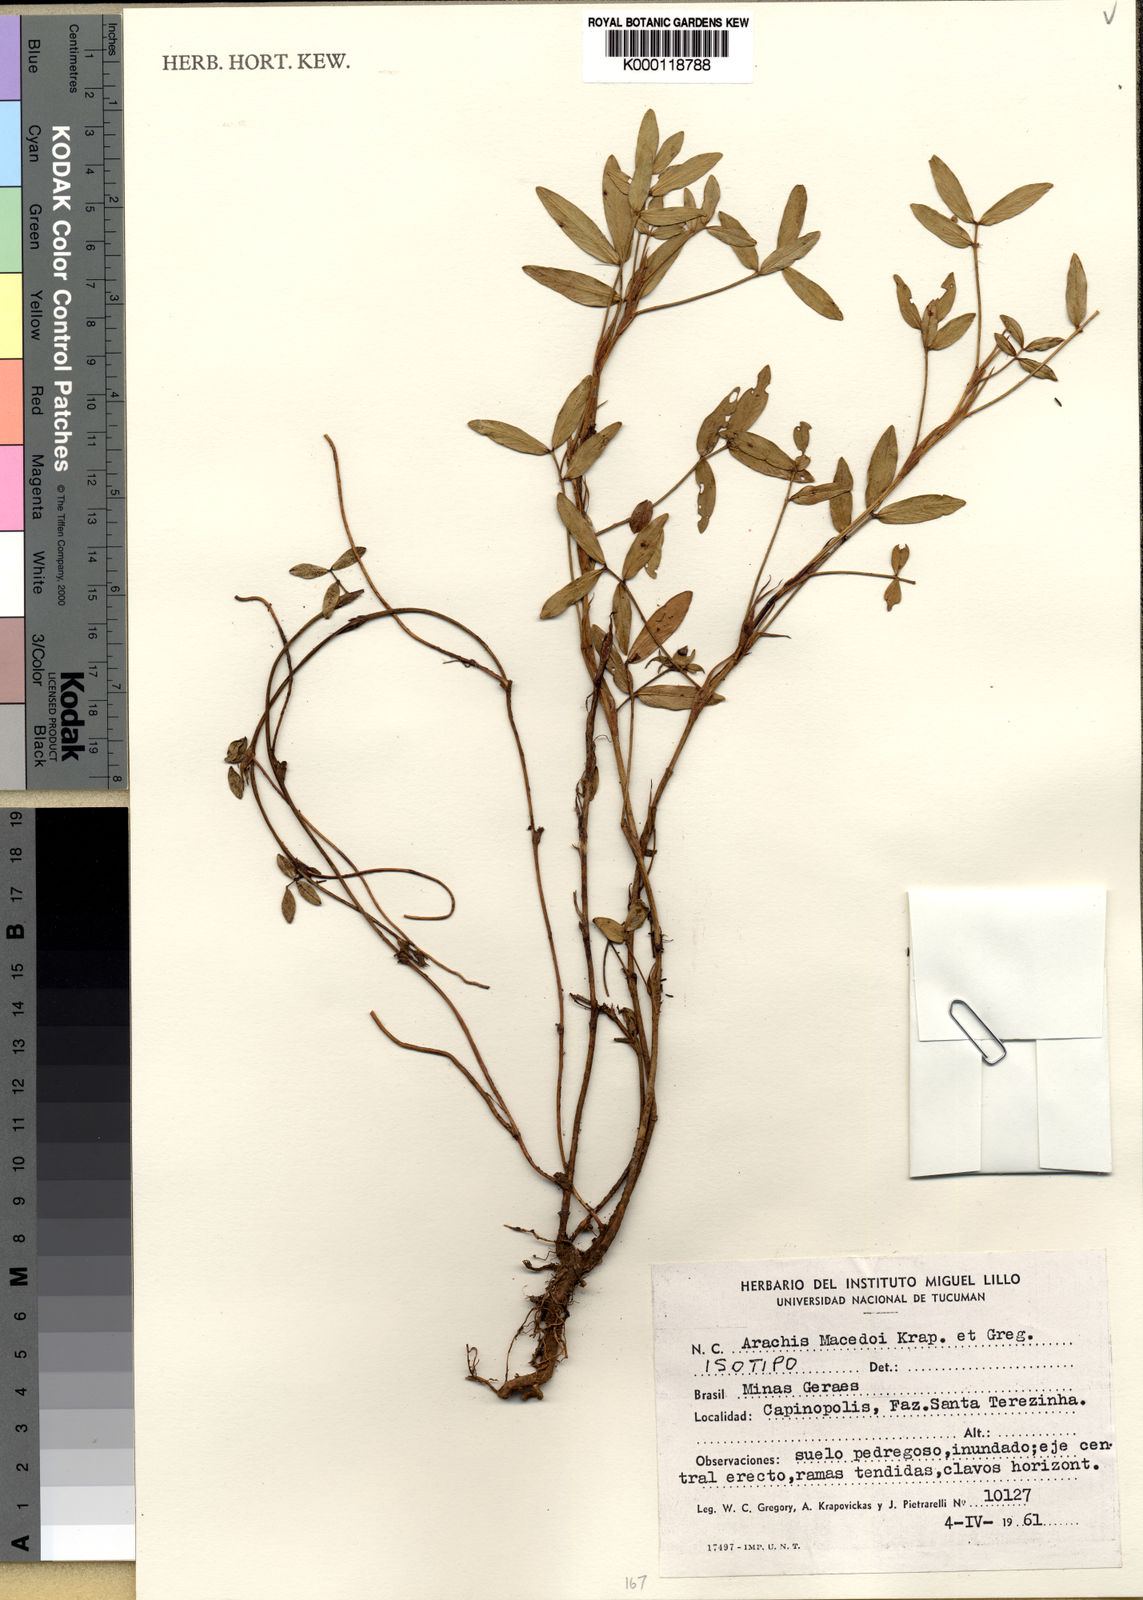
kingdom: Plantae
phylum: Tracheophyta
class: Magnoliopsida
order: Fabales
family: Fabaceae
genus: Arachis
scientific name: Arachis
